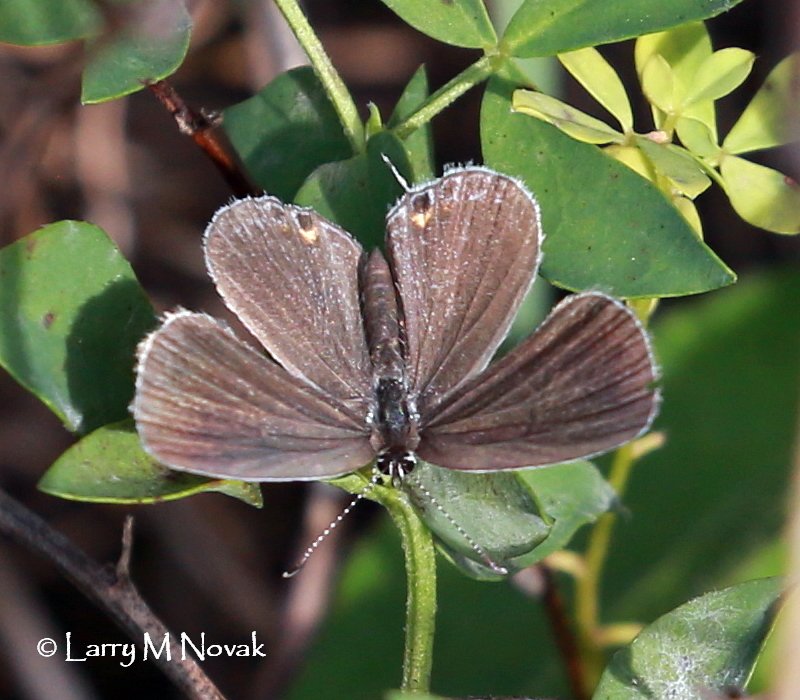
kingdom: Animalia
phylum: Arthropoda
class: Insecta
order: Lepidoptera
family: Lycaenidae
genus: Elkalyce
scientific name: Elkalyce comyntas
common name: Eastern Tailed-Blue
